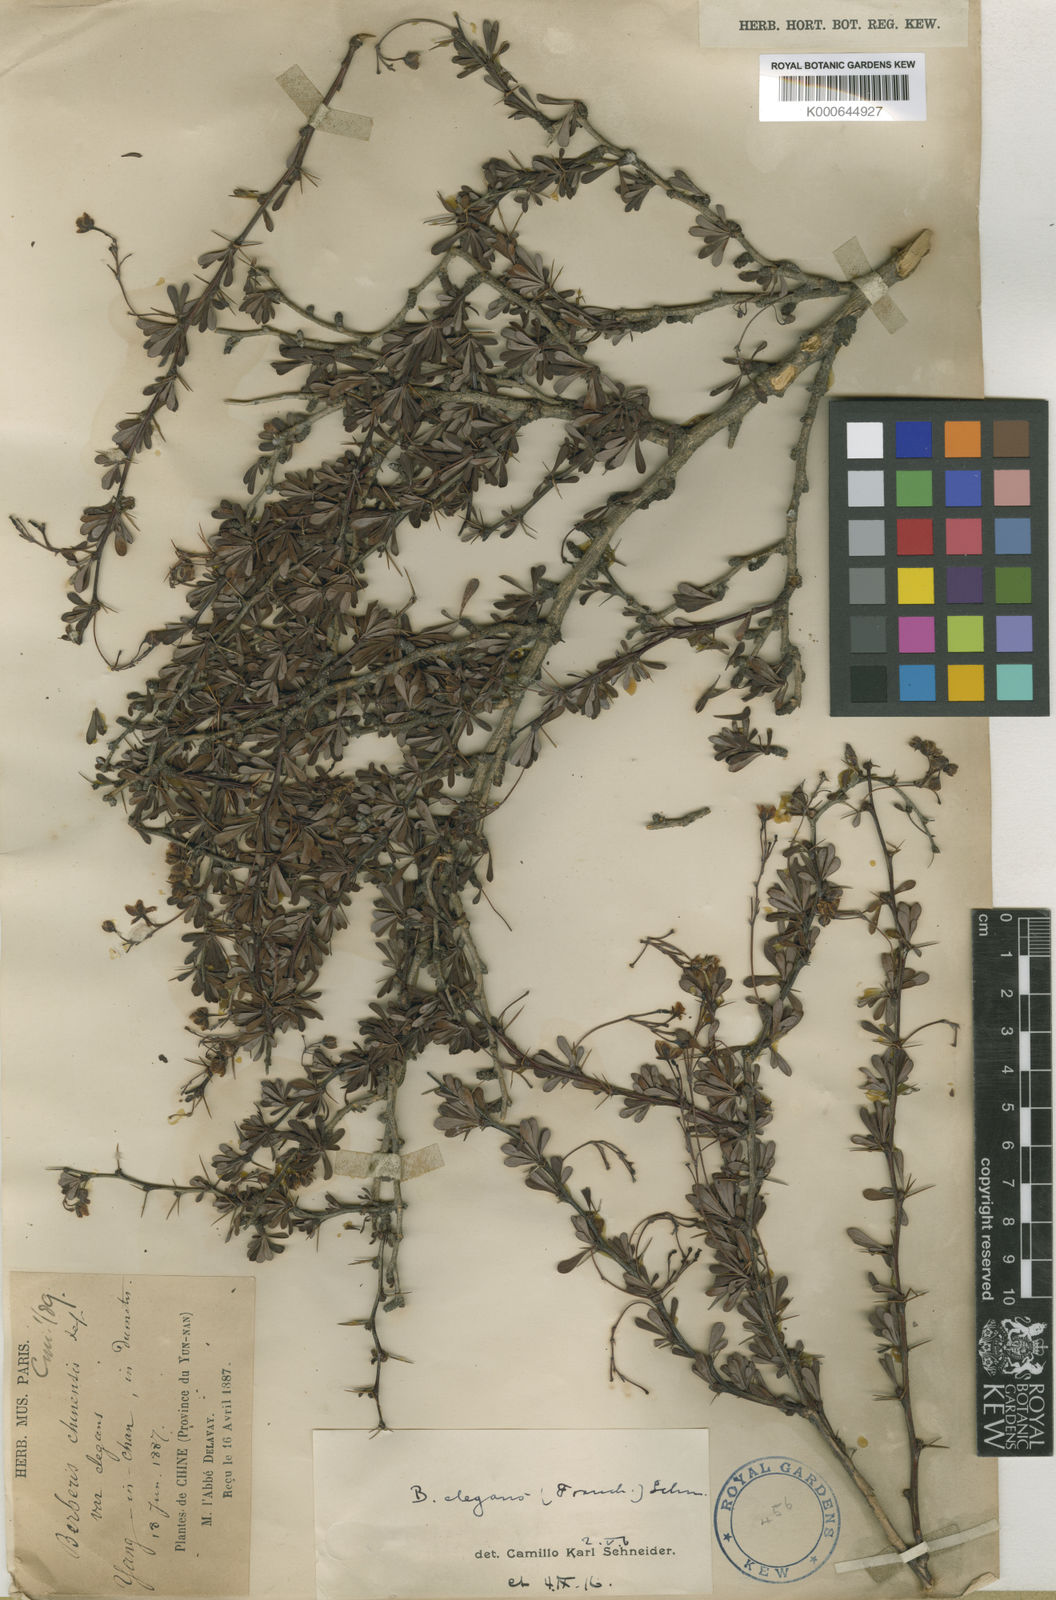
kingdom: Plantae
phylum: Tracheophyta
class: Magnoliopsida
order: Ranunculales
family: Berberidaceae
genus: Berberis
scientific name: Berberis amoena
